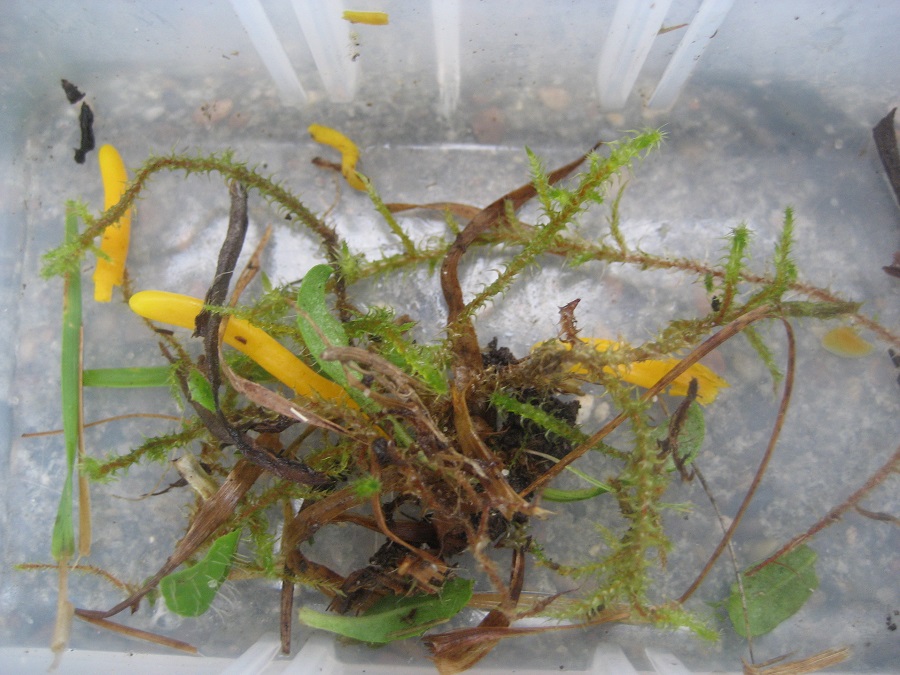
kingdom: Fungi
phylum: Basidiomycota
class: Agaricomycetes
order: Agaricales
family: Clavariaceae
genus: Clavulinopsis
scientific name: Clavulinopsis
